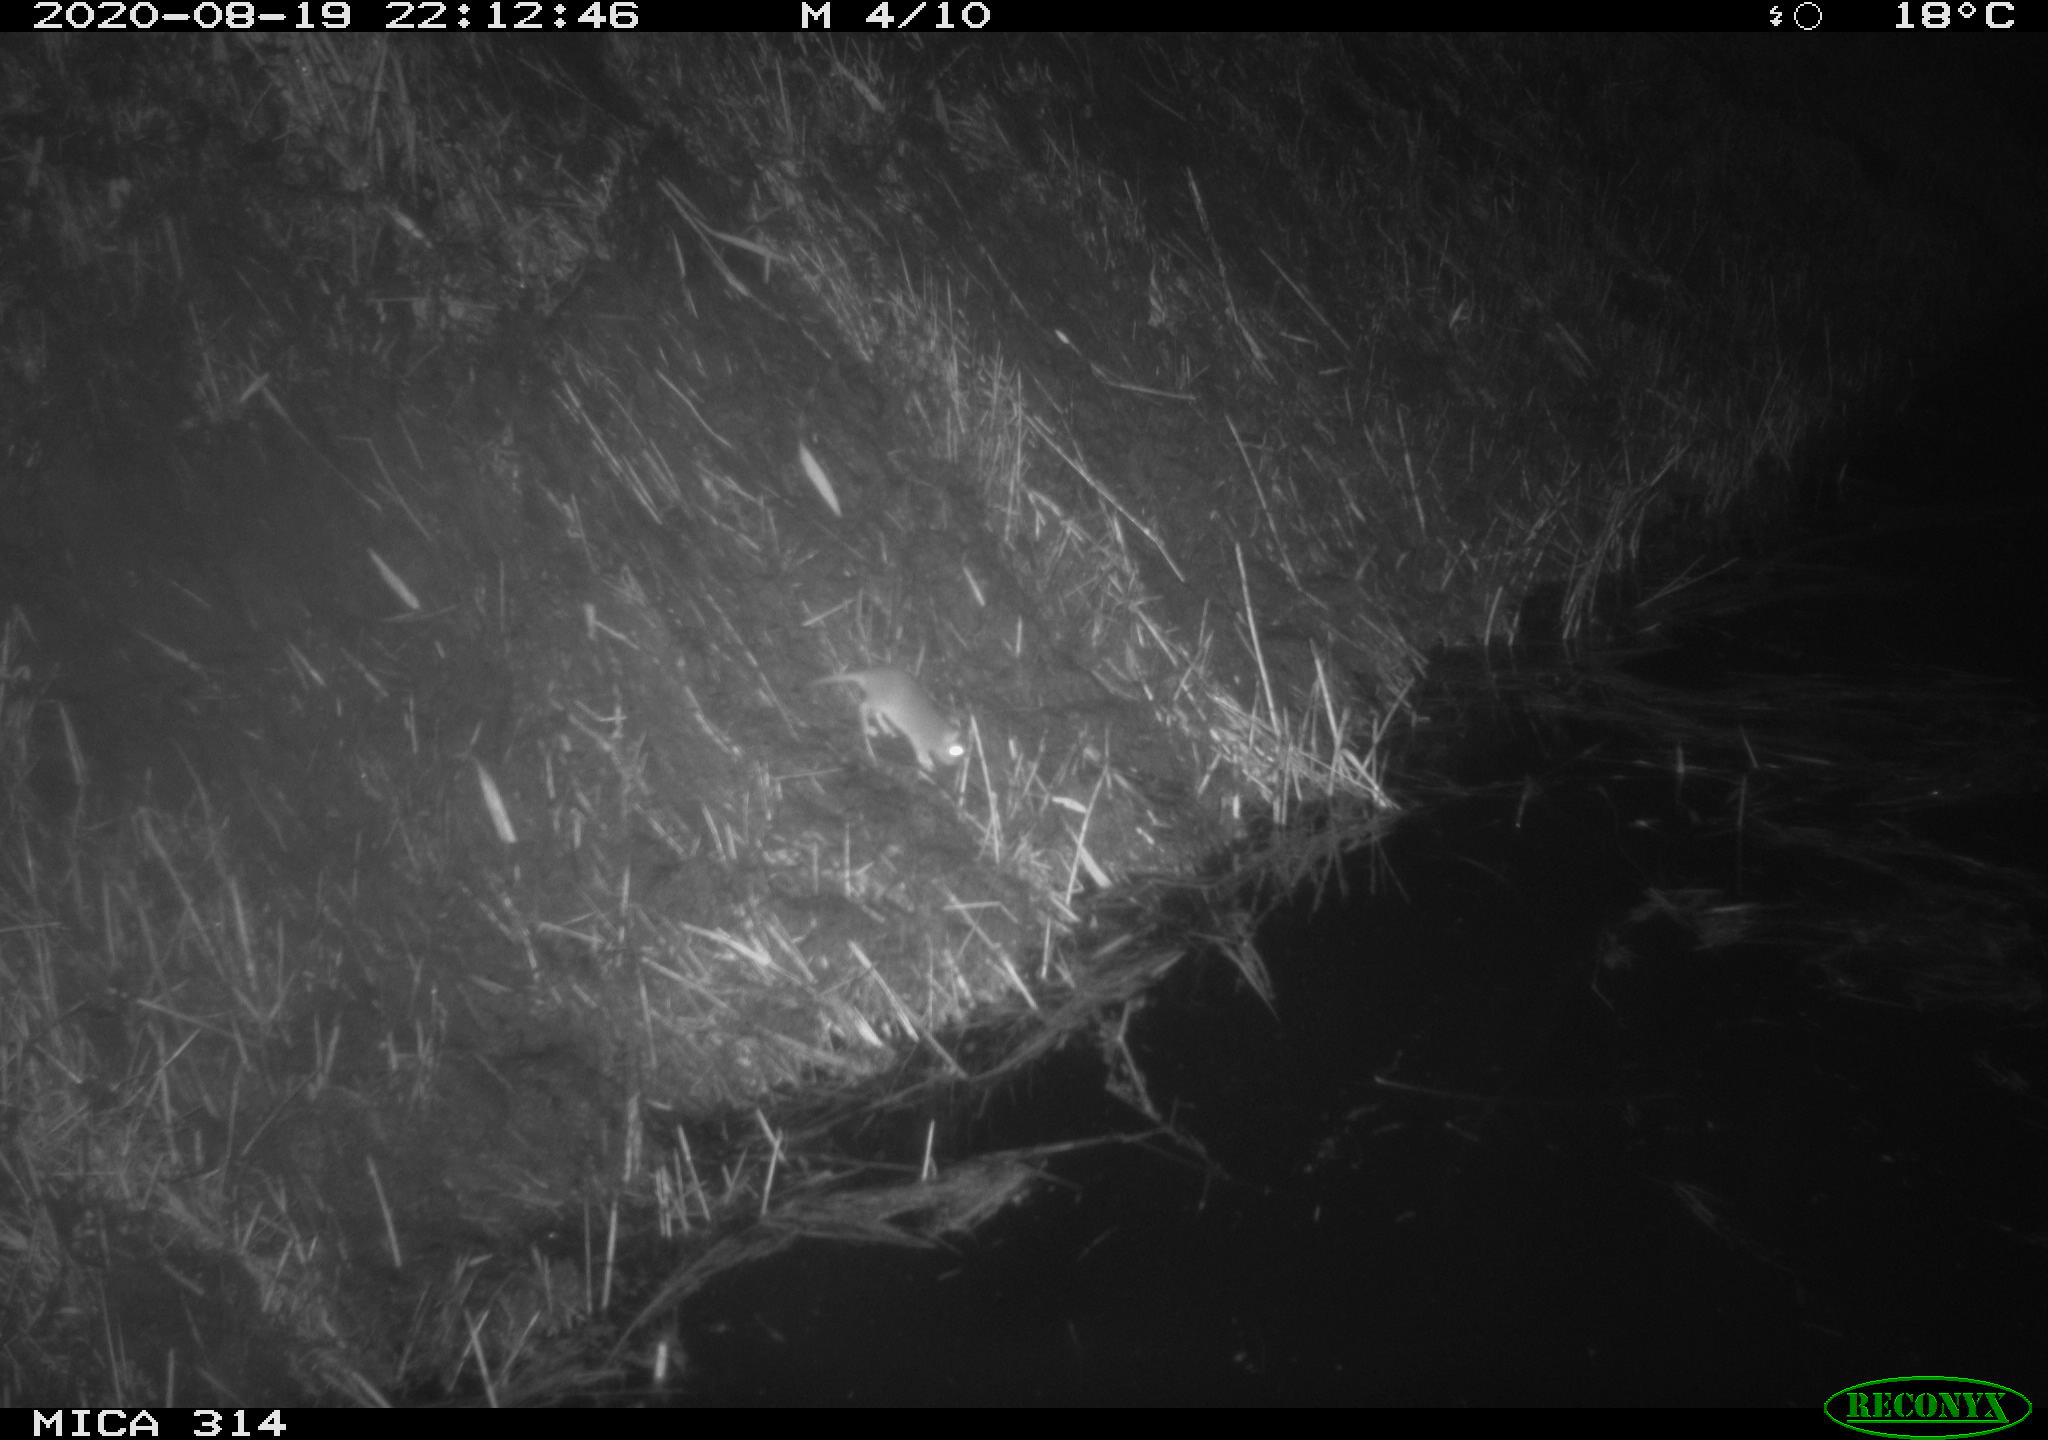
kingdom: Animalia
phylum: Chordata
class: Mammalia
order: Rodentia
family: Muridae
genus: Rattus
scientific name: Rattus norvegicus
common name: Brown rat
